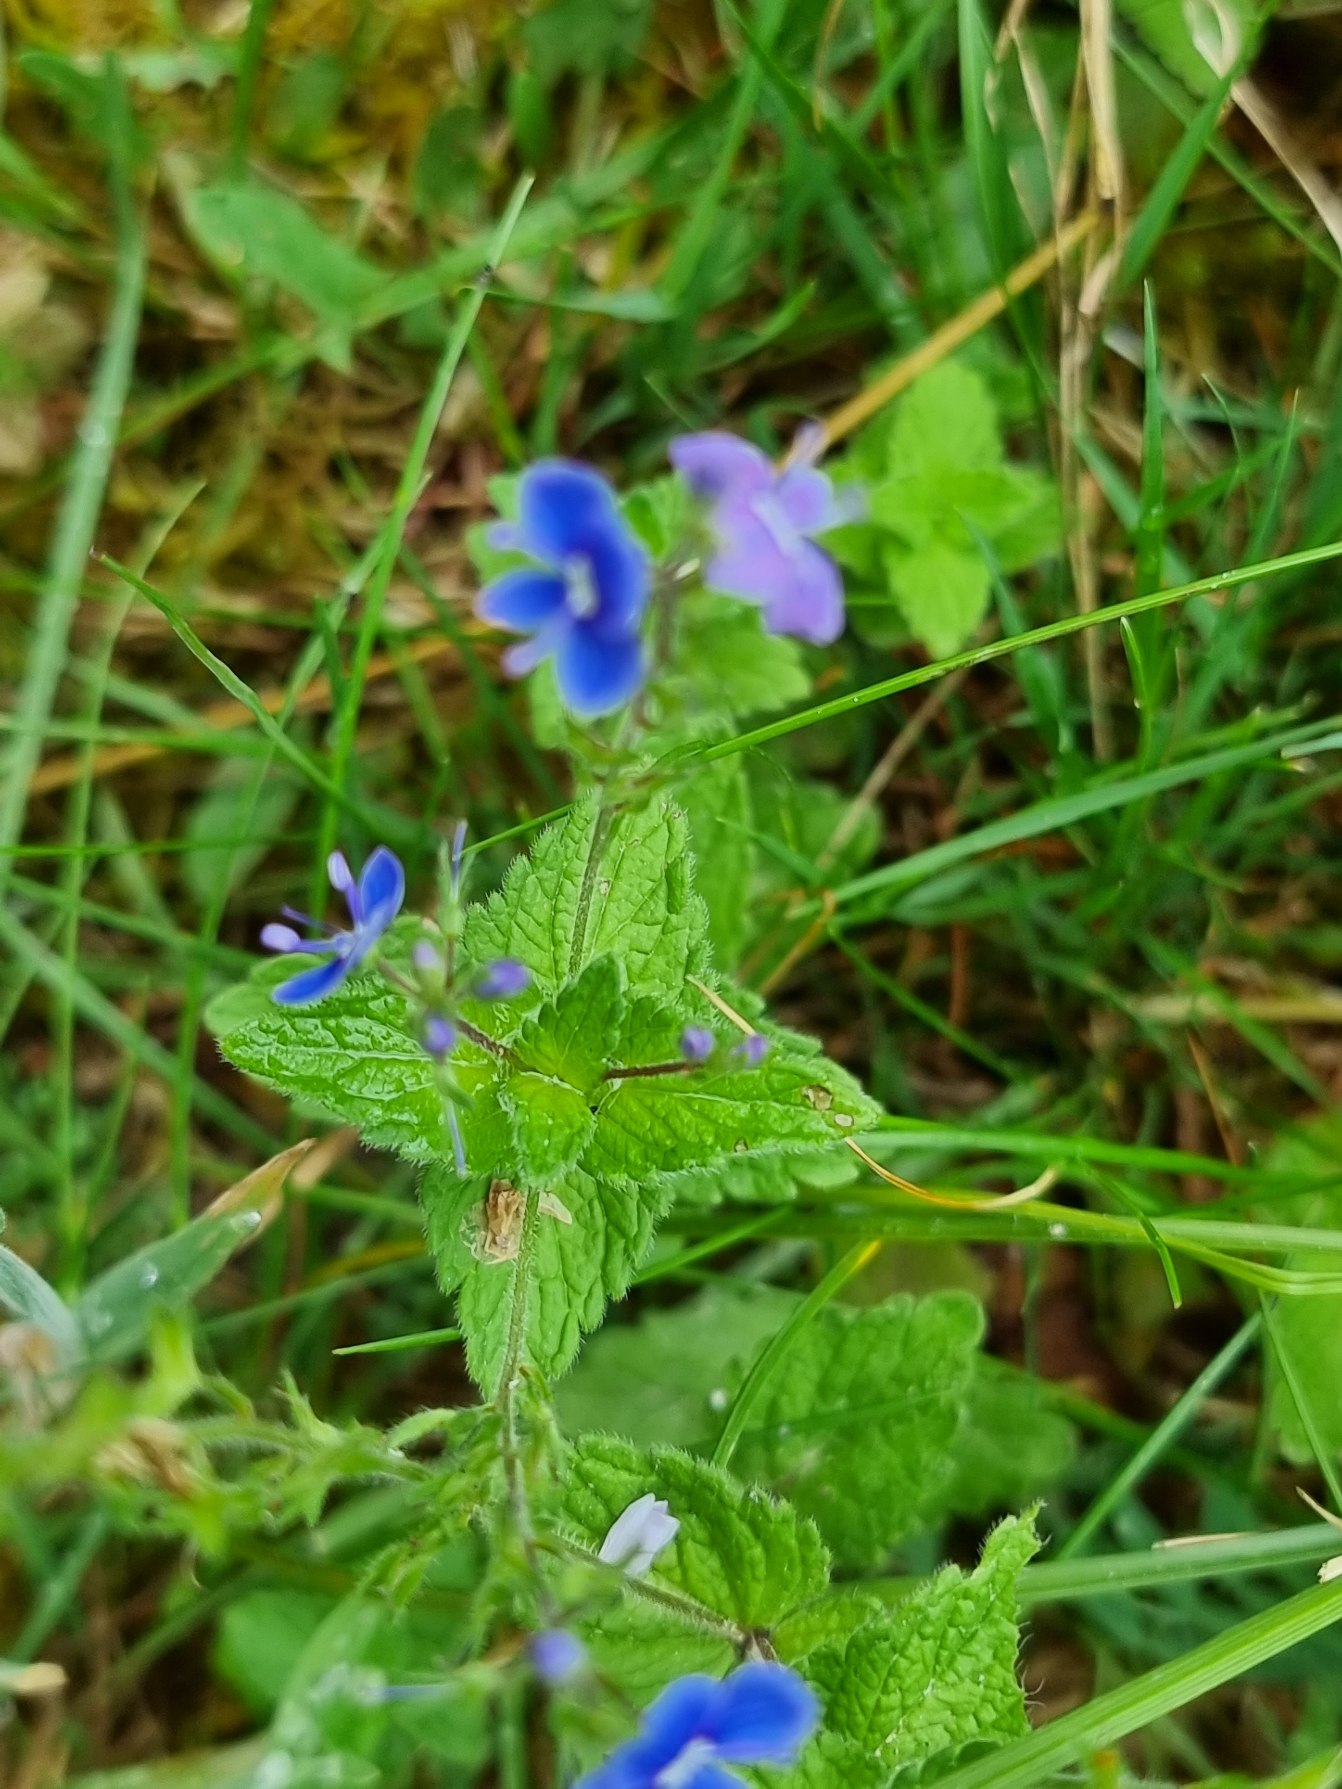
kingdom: Plantae
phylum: Tracheophyta
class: Magnoliopsida
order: Lamiales
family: Plantaginaceae
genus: Veronica
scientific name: Veronica chamaedrys
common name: Tveskægget ærenpris
